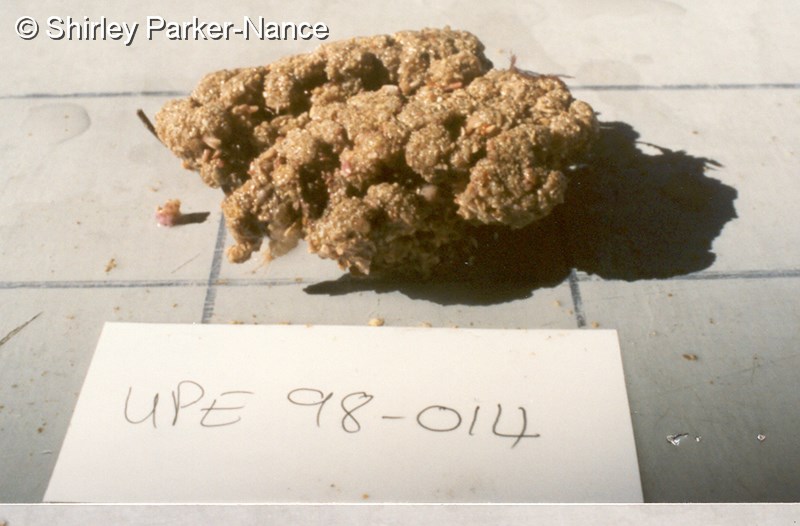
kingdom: Animalia
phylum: Chordata
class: Ascidiacea
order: Aplousobranchia
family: Polyclinidae
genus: Synoicum
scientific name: Synoicum
